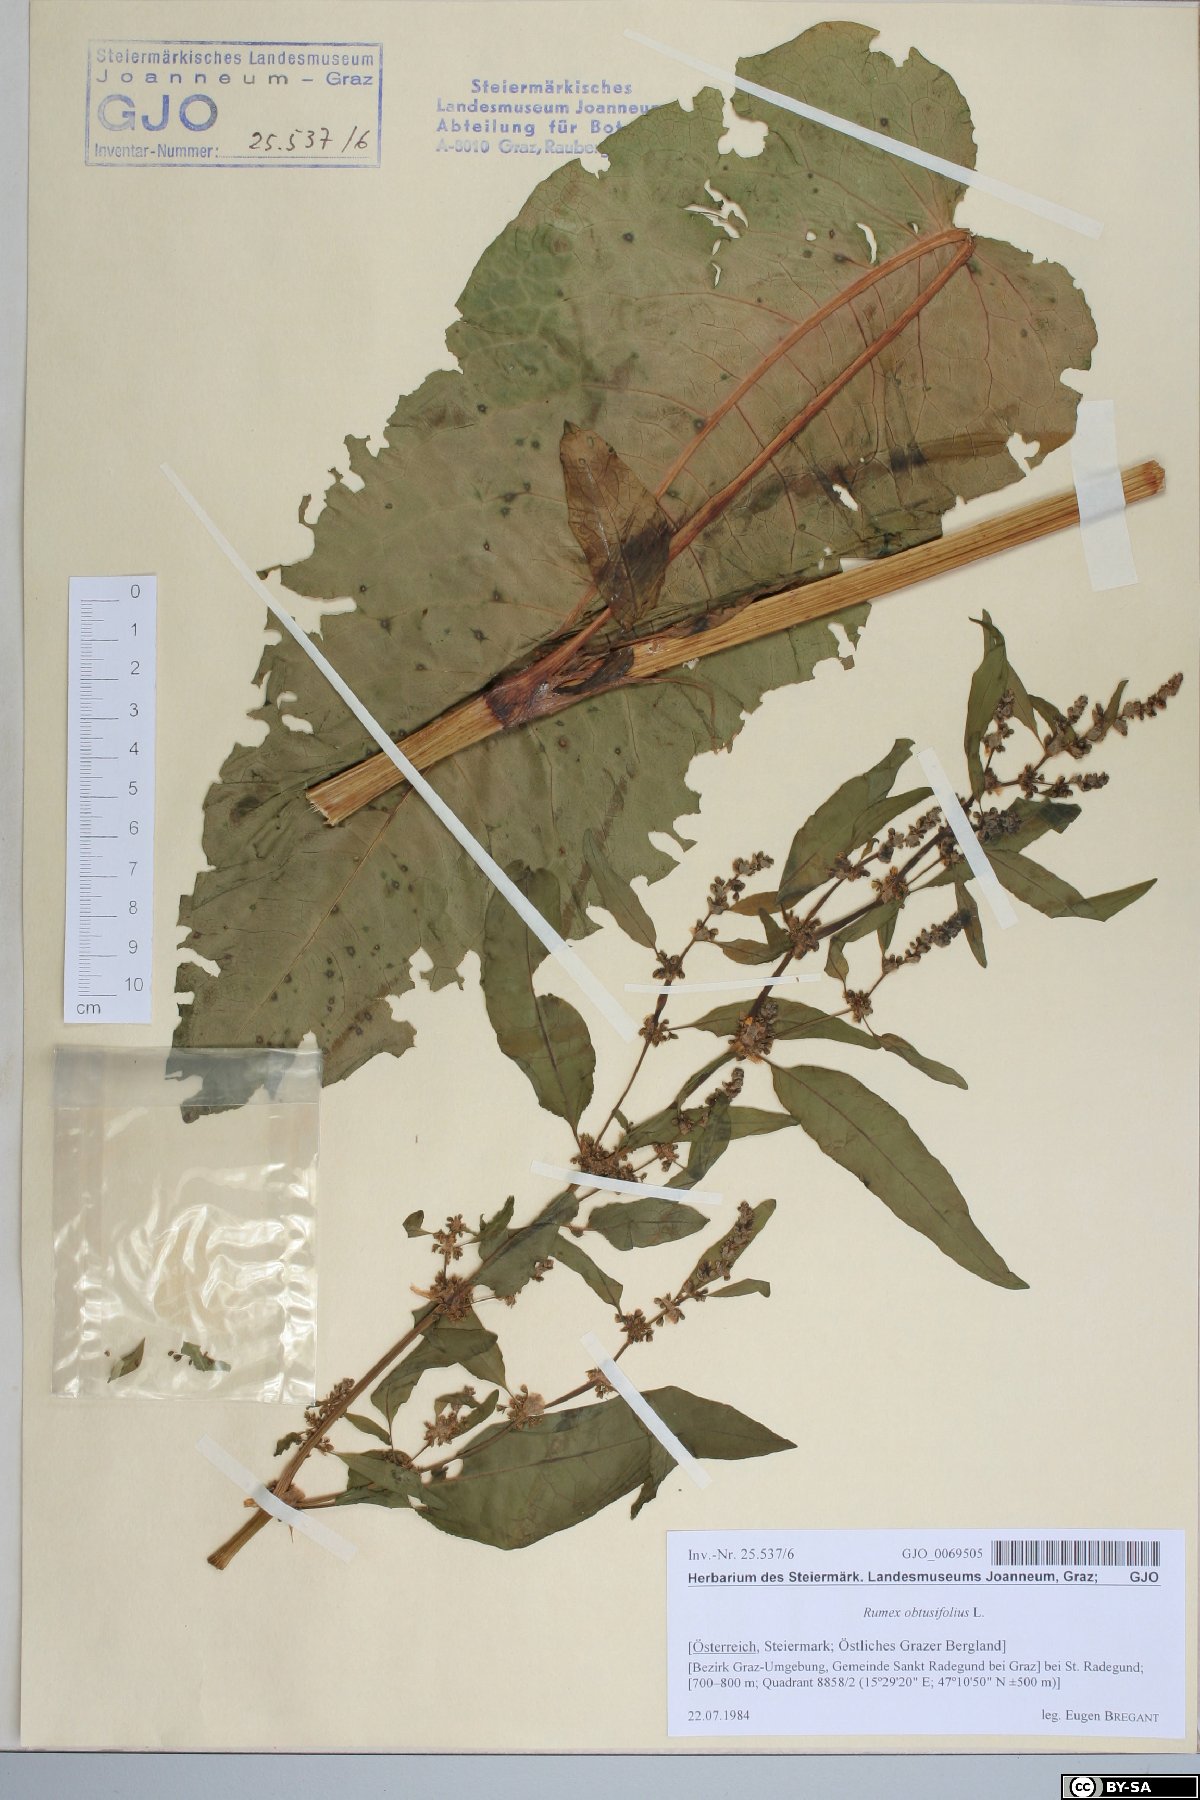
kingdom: Plantae
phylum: Tracheophyta
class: Magnoliopsida
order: Caryophyllales
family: Polygonaceae
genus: Rumex
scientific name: Rumex obtusifolius
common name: Bitter dock
